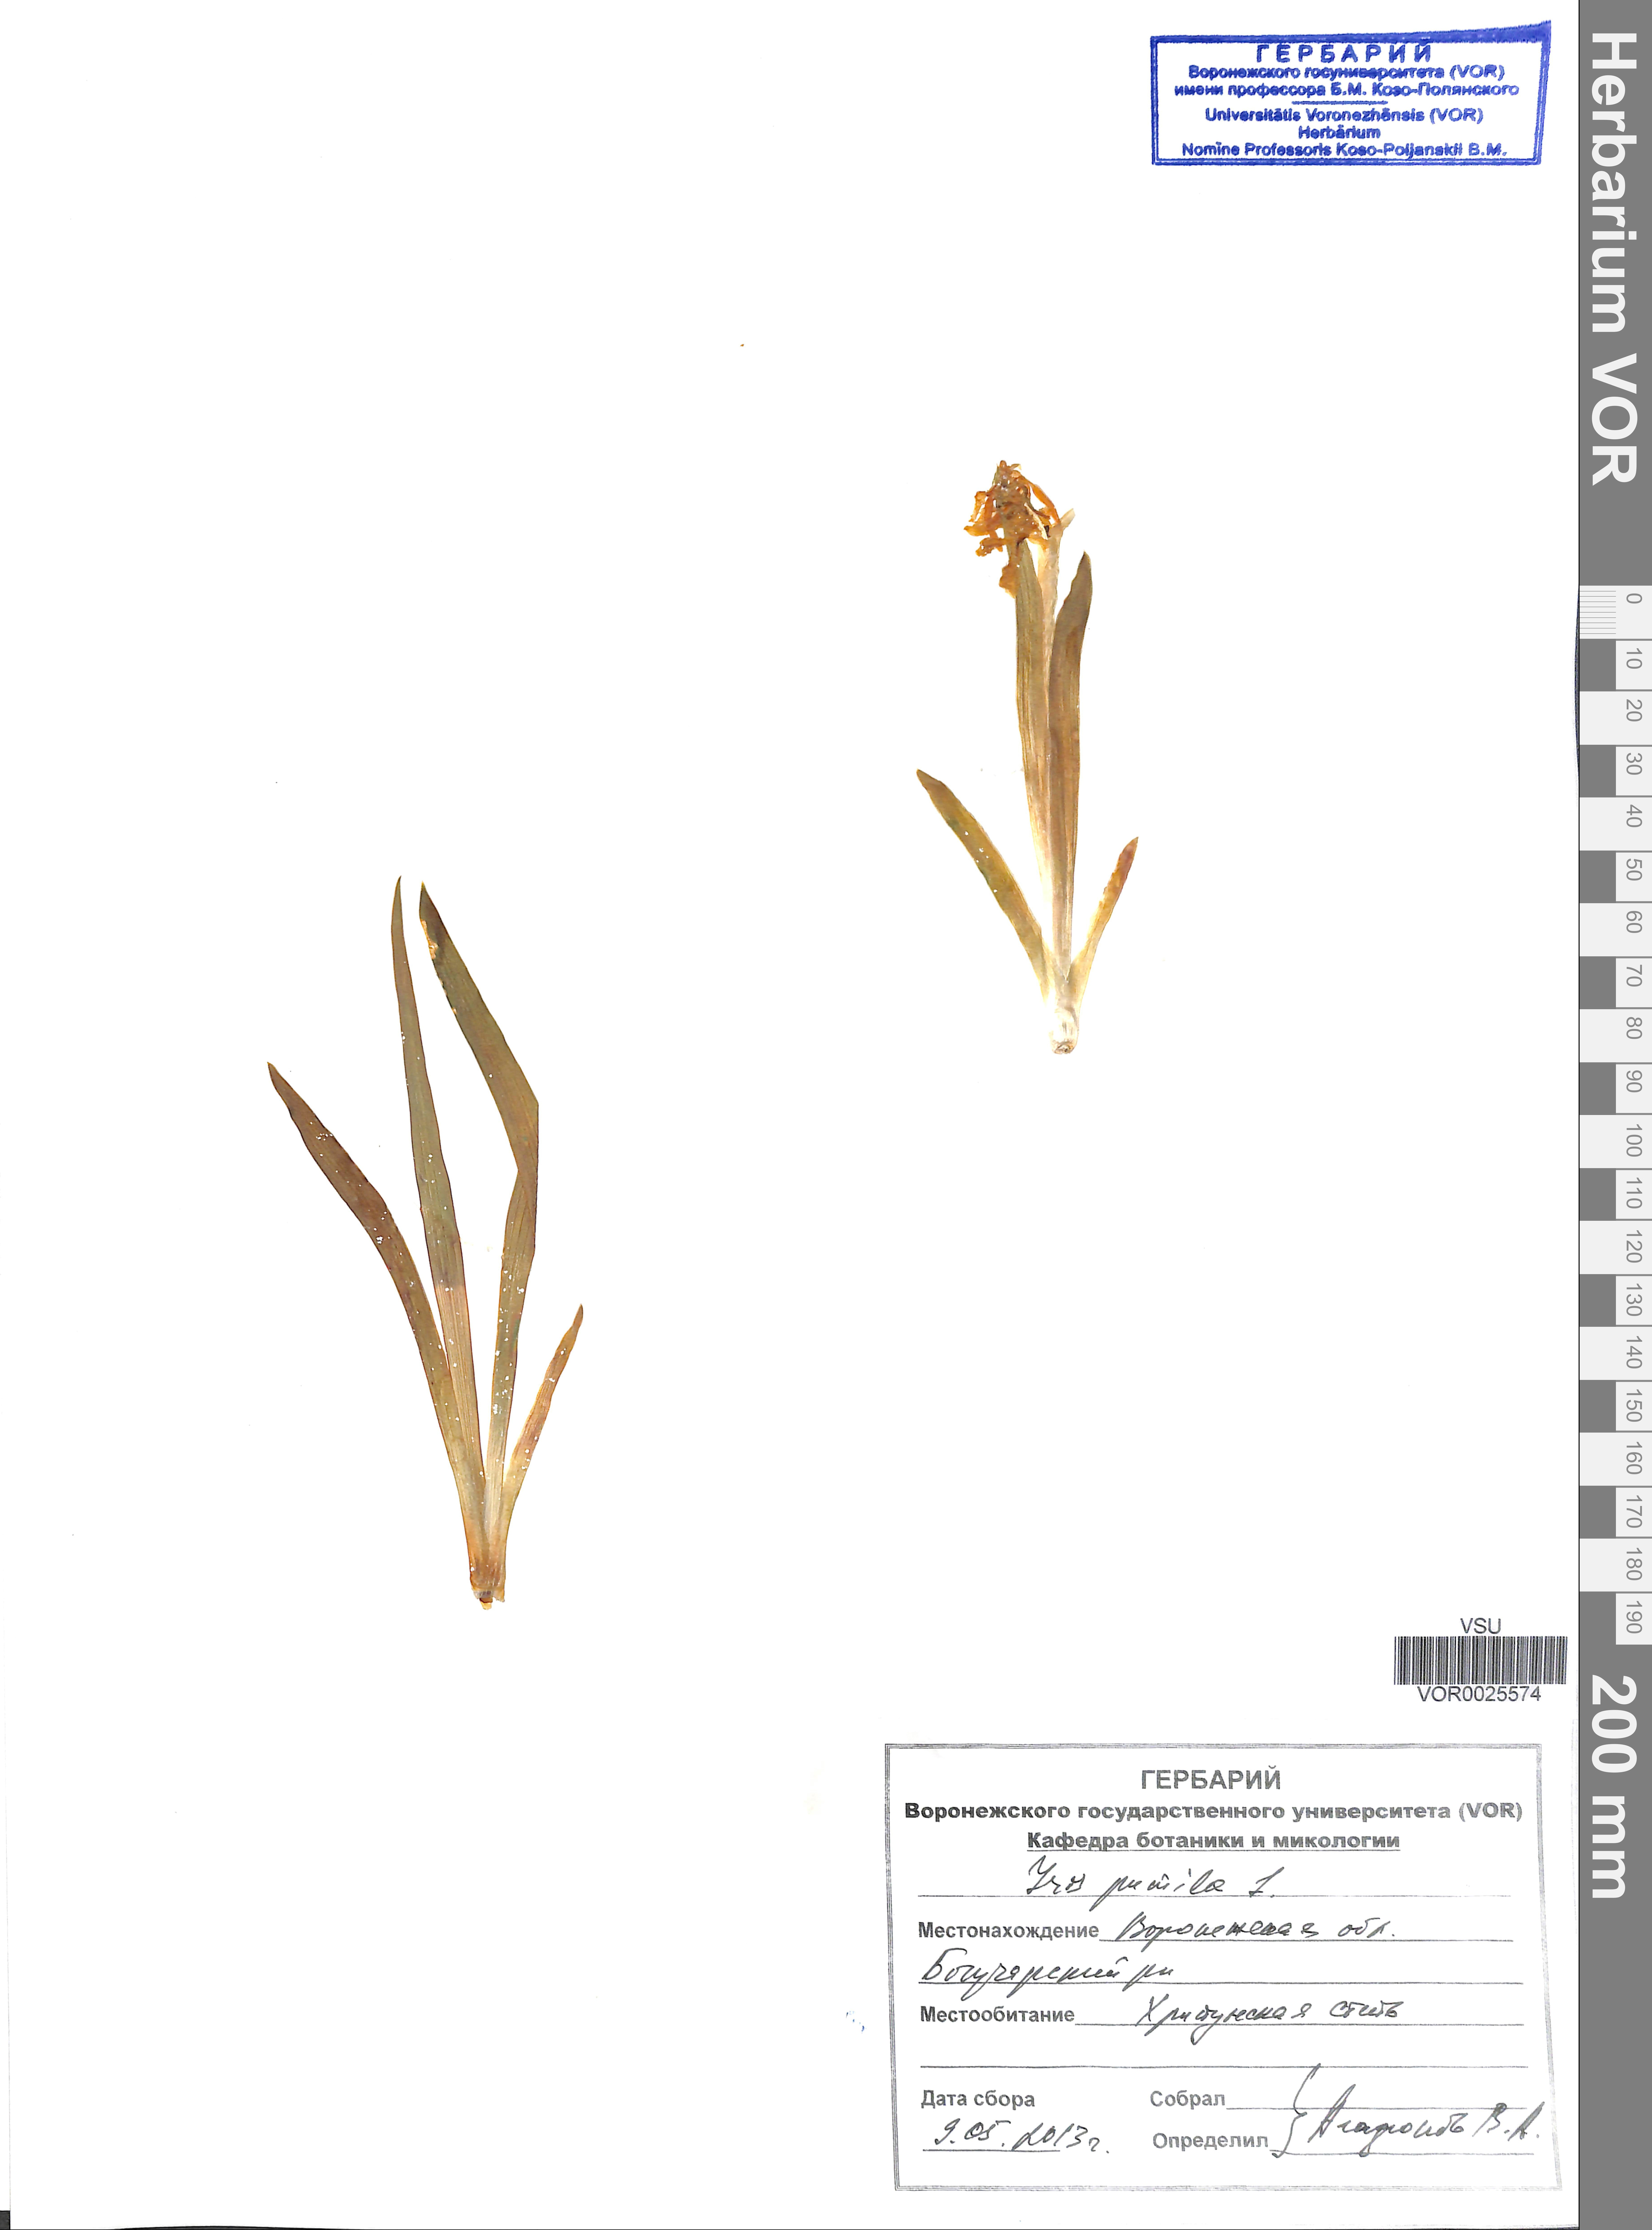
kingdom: Plantae
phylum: Tracheophyta
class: Liliopsida
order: Asparagales
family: Iridaceae
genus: Iris
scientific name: Iris pumila
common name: Dwarf iris
